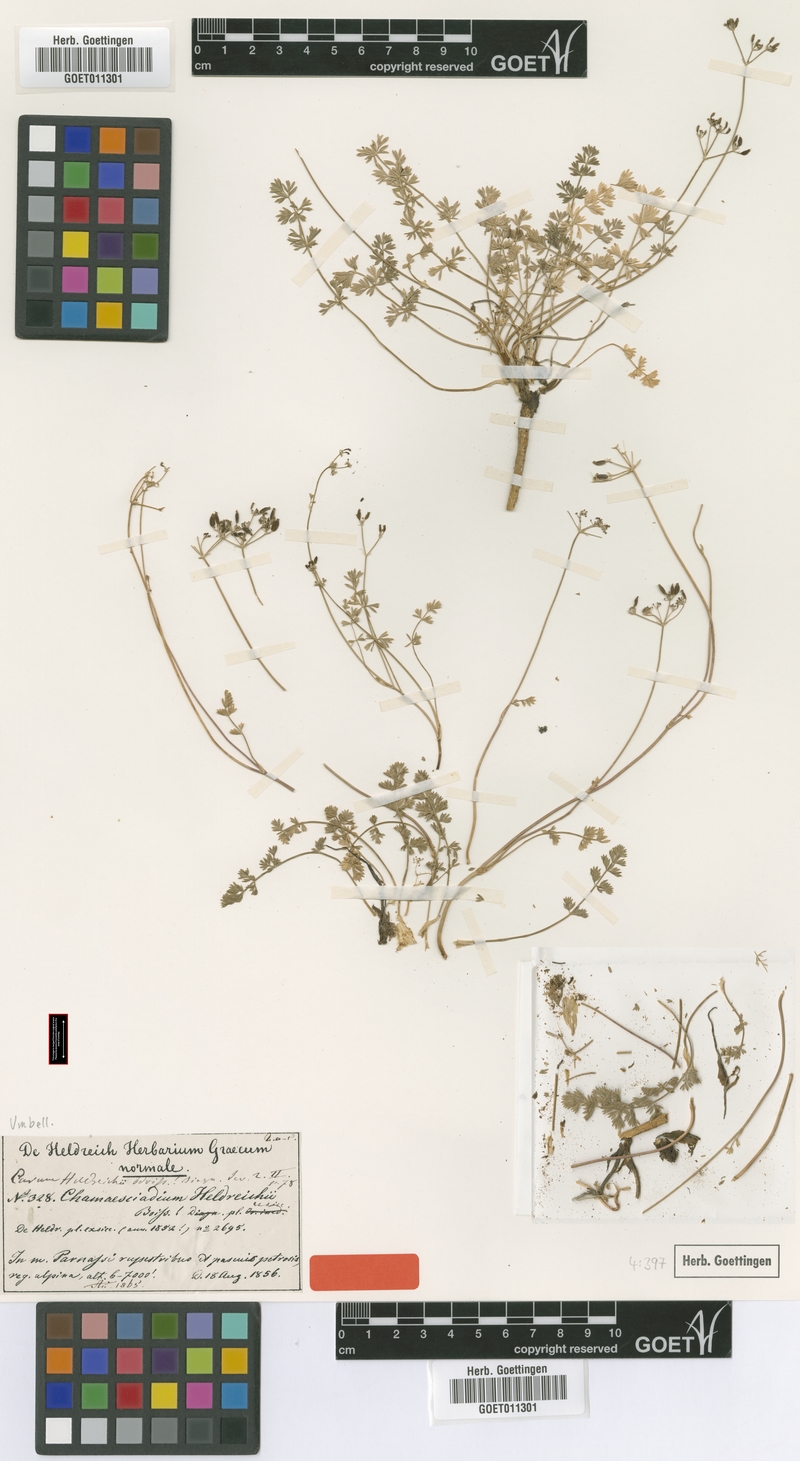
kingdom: Plantae
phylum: Tracheophyta
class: Magnoliopsida
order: Apiales
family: Apiaceae
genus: Carum
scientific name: Carum heldreichii
